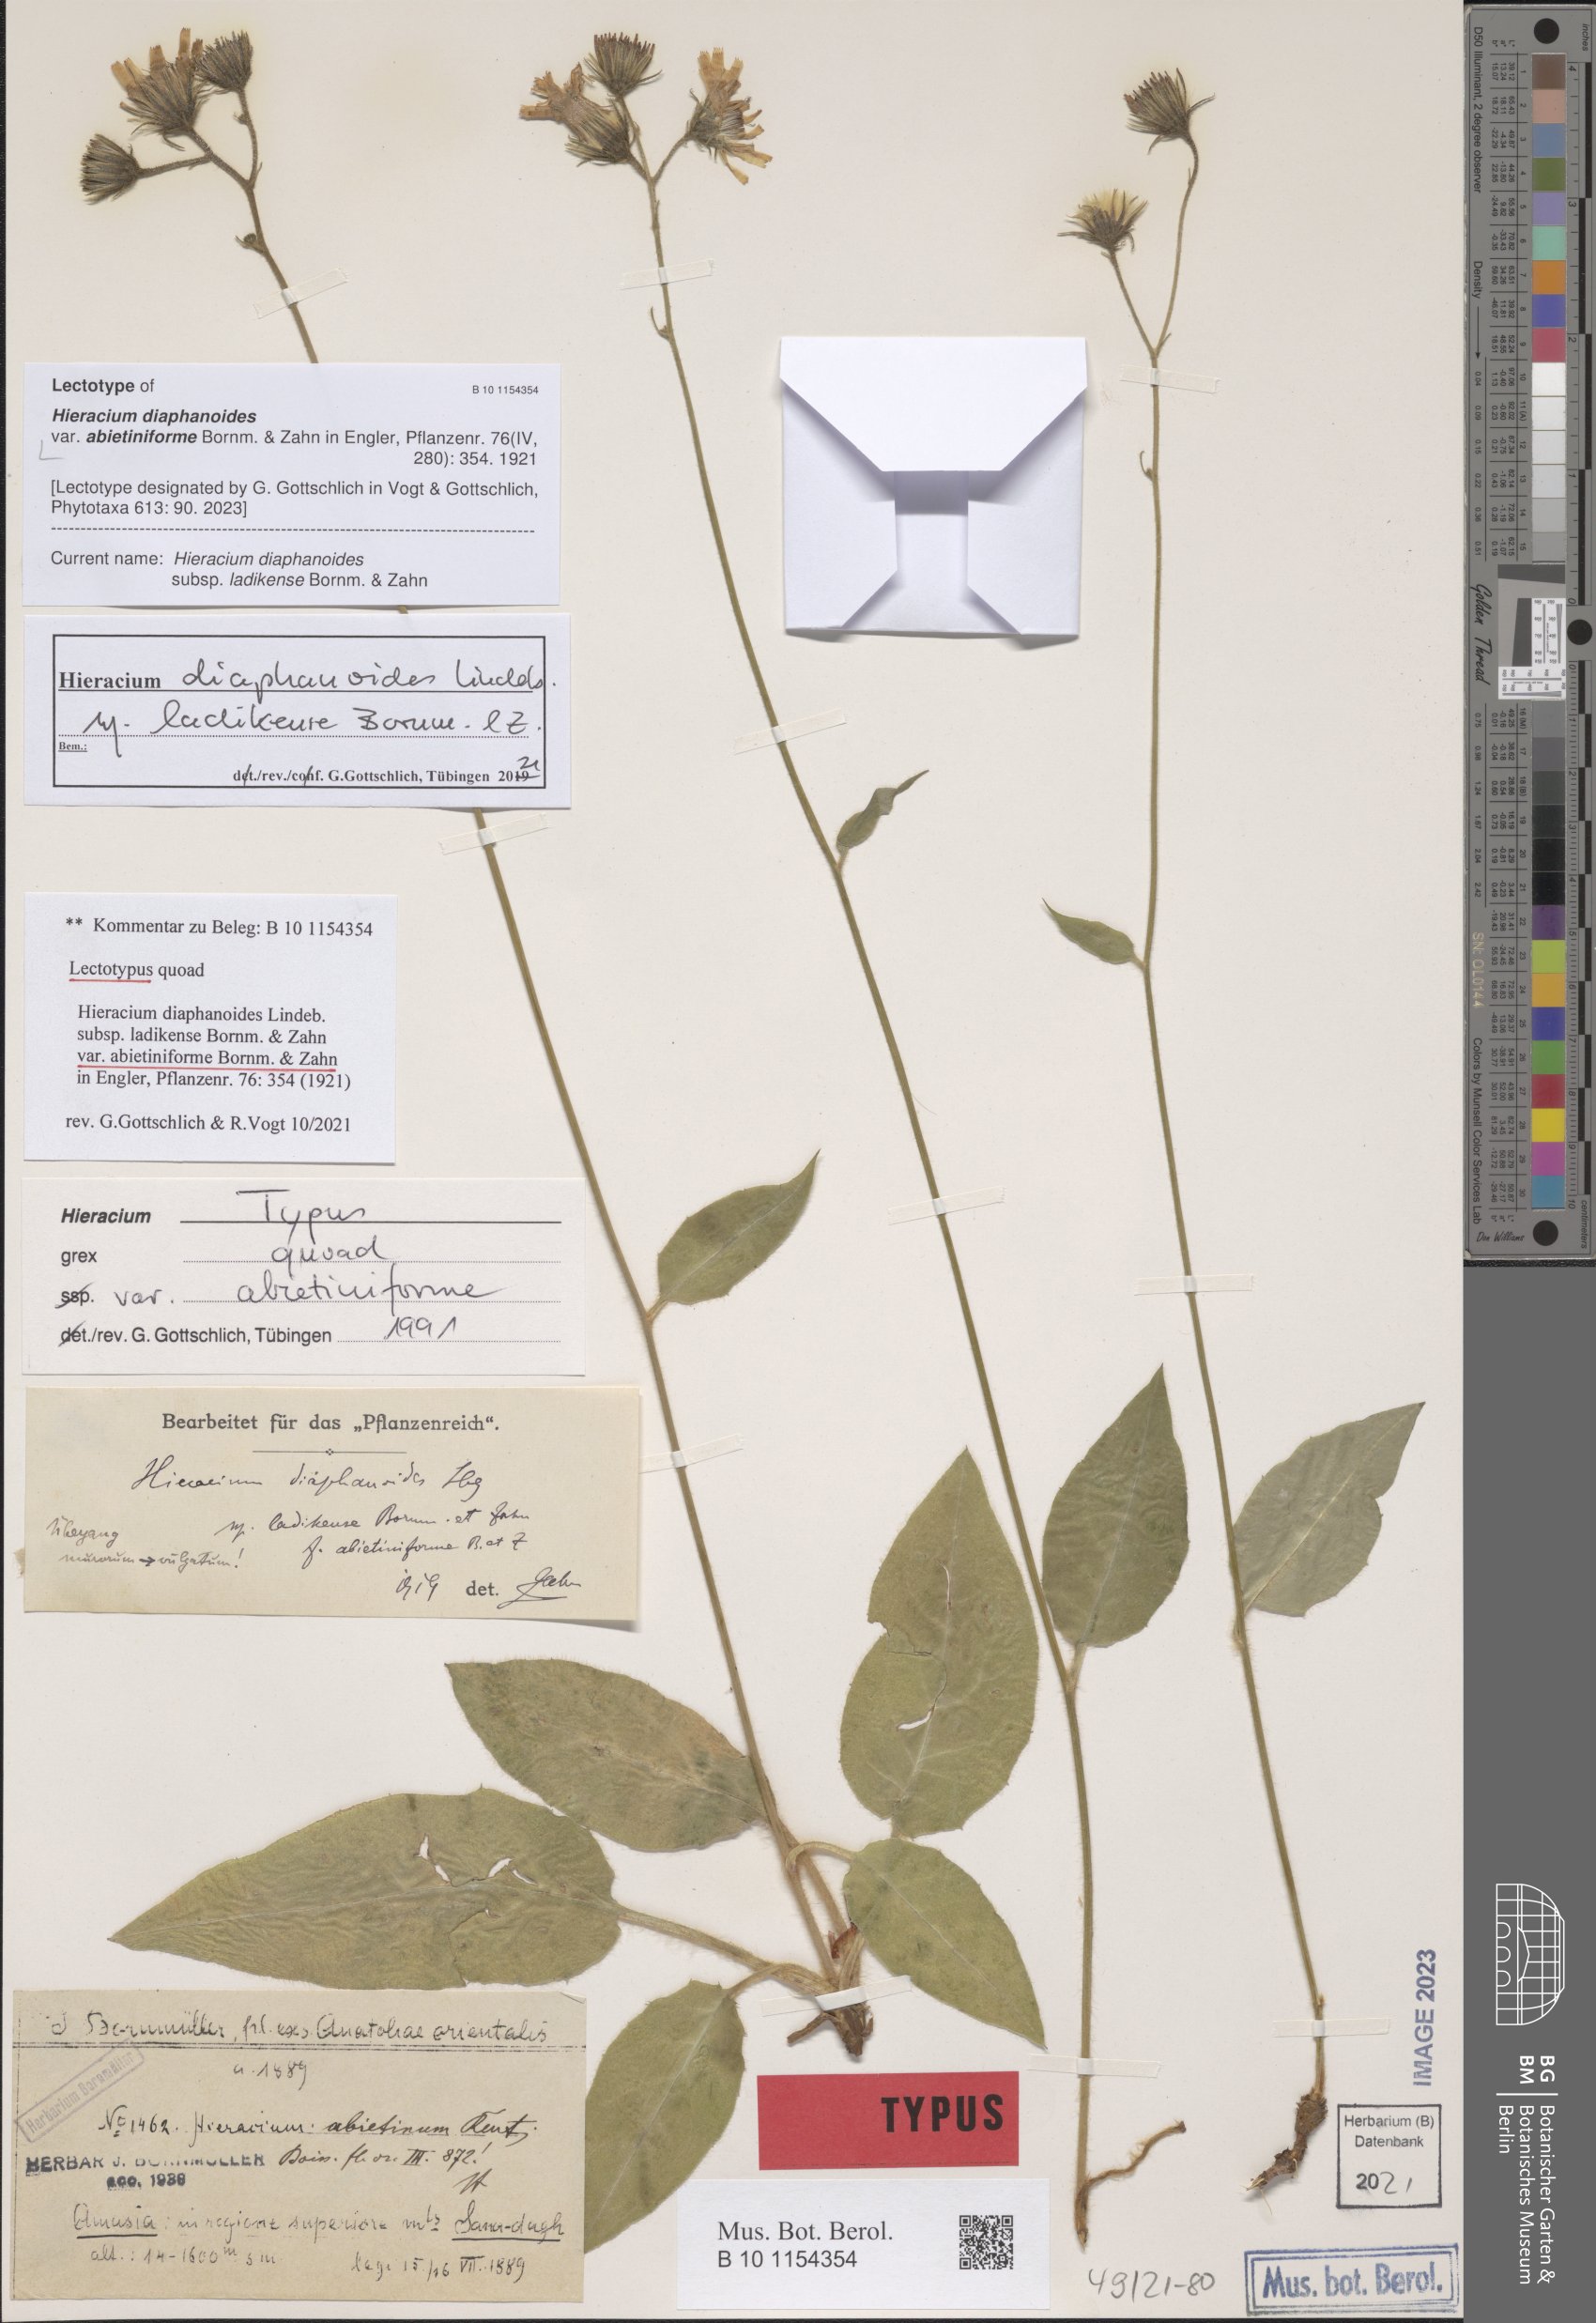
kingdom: Plantae
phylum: Tracheophyta
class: Magnoliopsida
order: Asterales
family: Asteraceae
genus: Hieracium
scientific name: Hieracium diaphanoides
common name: Fine-bracted hawkweed
